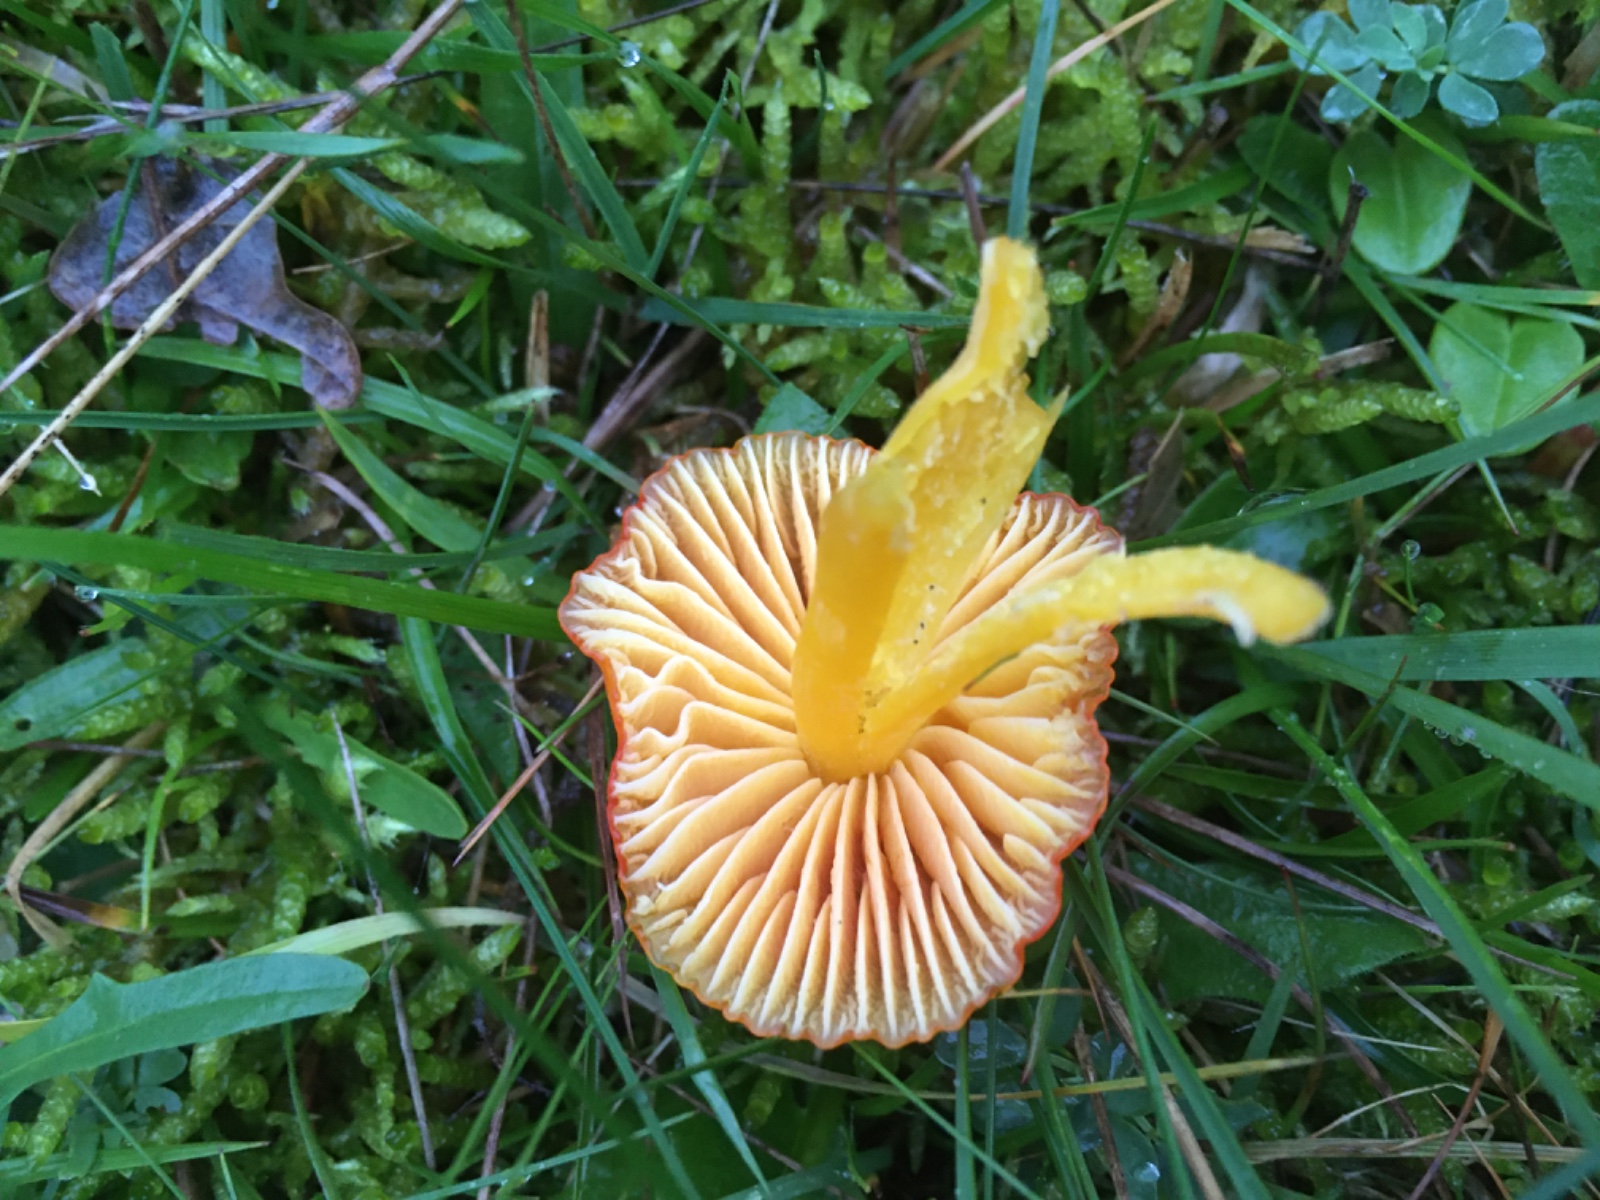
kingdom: Fungi
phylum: Basidiomycota
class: Agaricomycetes
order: Agaricales
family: Hygrophoraceae
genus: Hygrocybe
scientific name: Hygrocybe chlorophana
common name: gul vokshat
